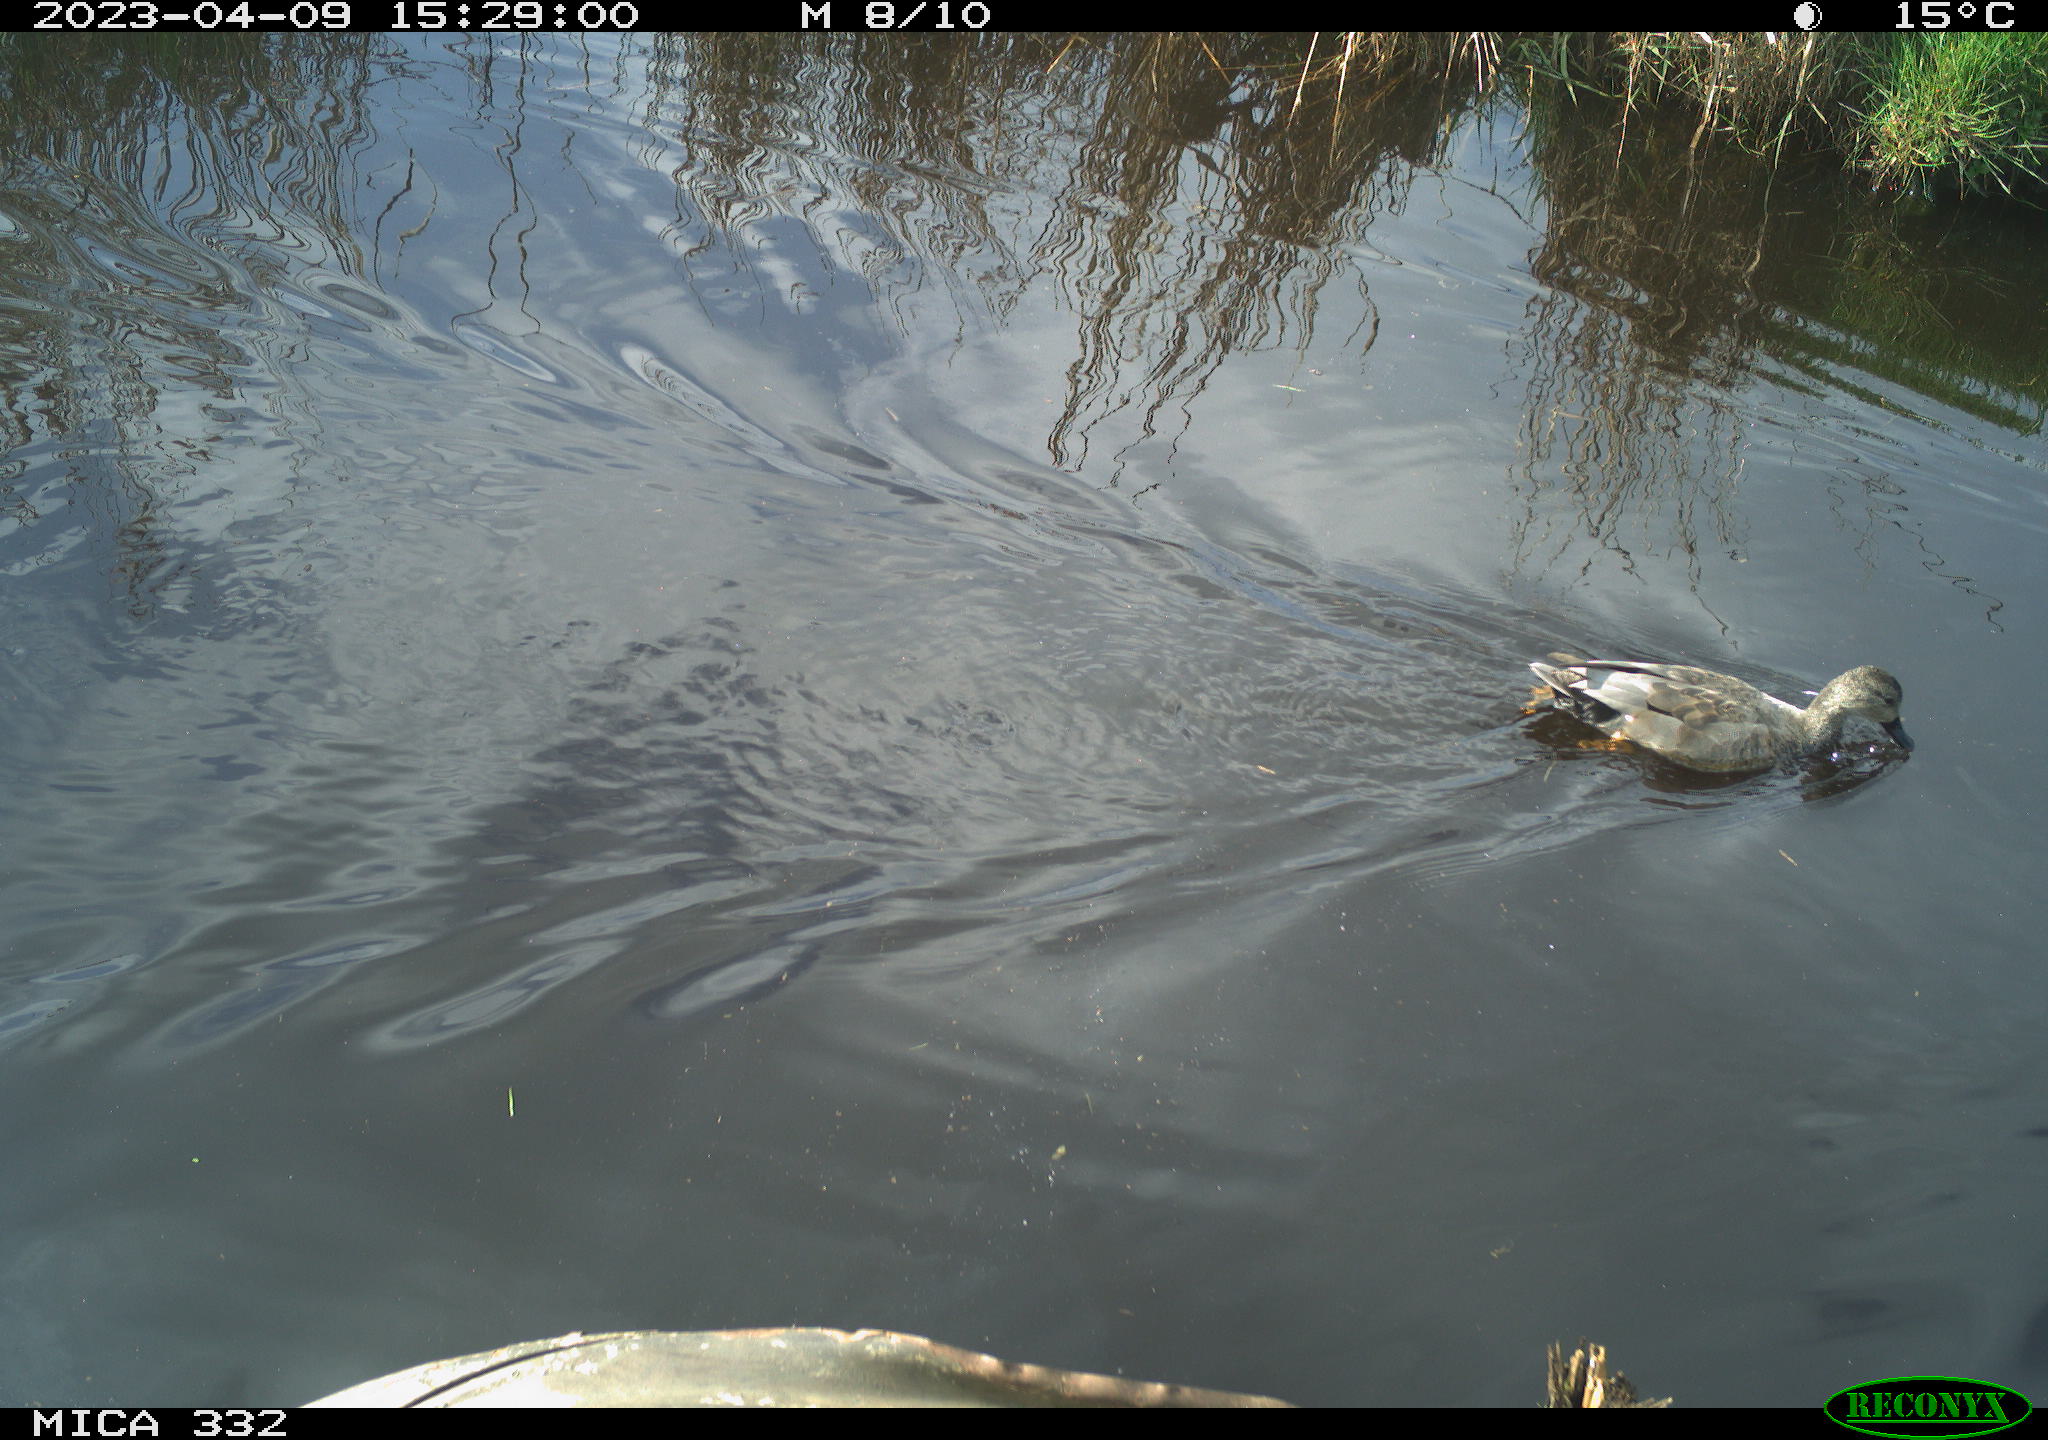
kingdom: Animalia
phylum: Chordata
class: Aves
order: Anseriformes
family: Anatidae
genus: Mareca
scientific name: Mareca strepera
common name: Gadwall
